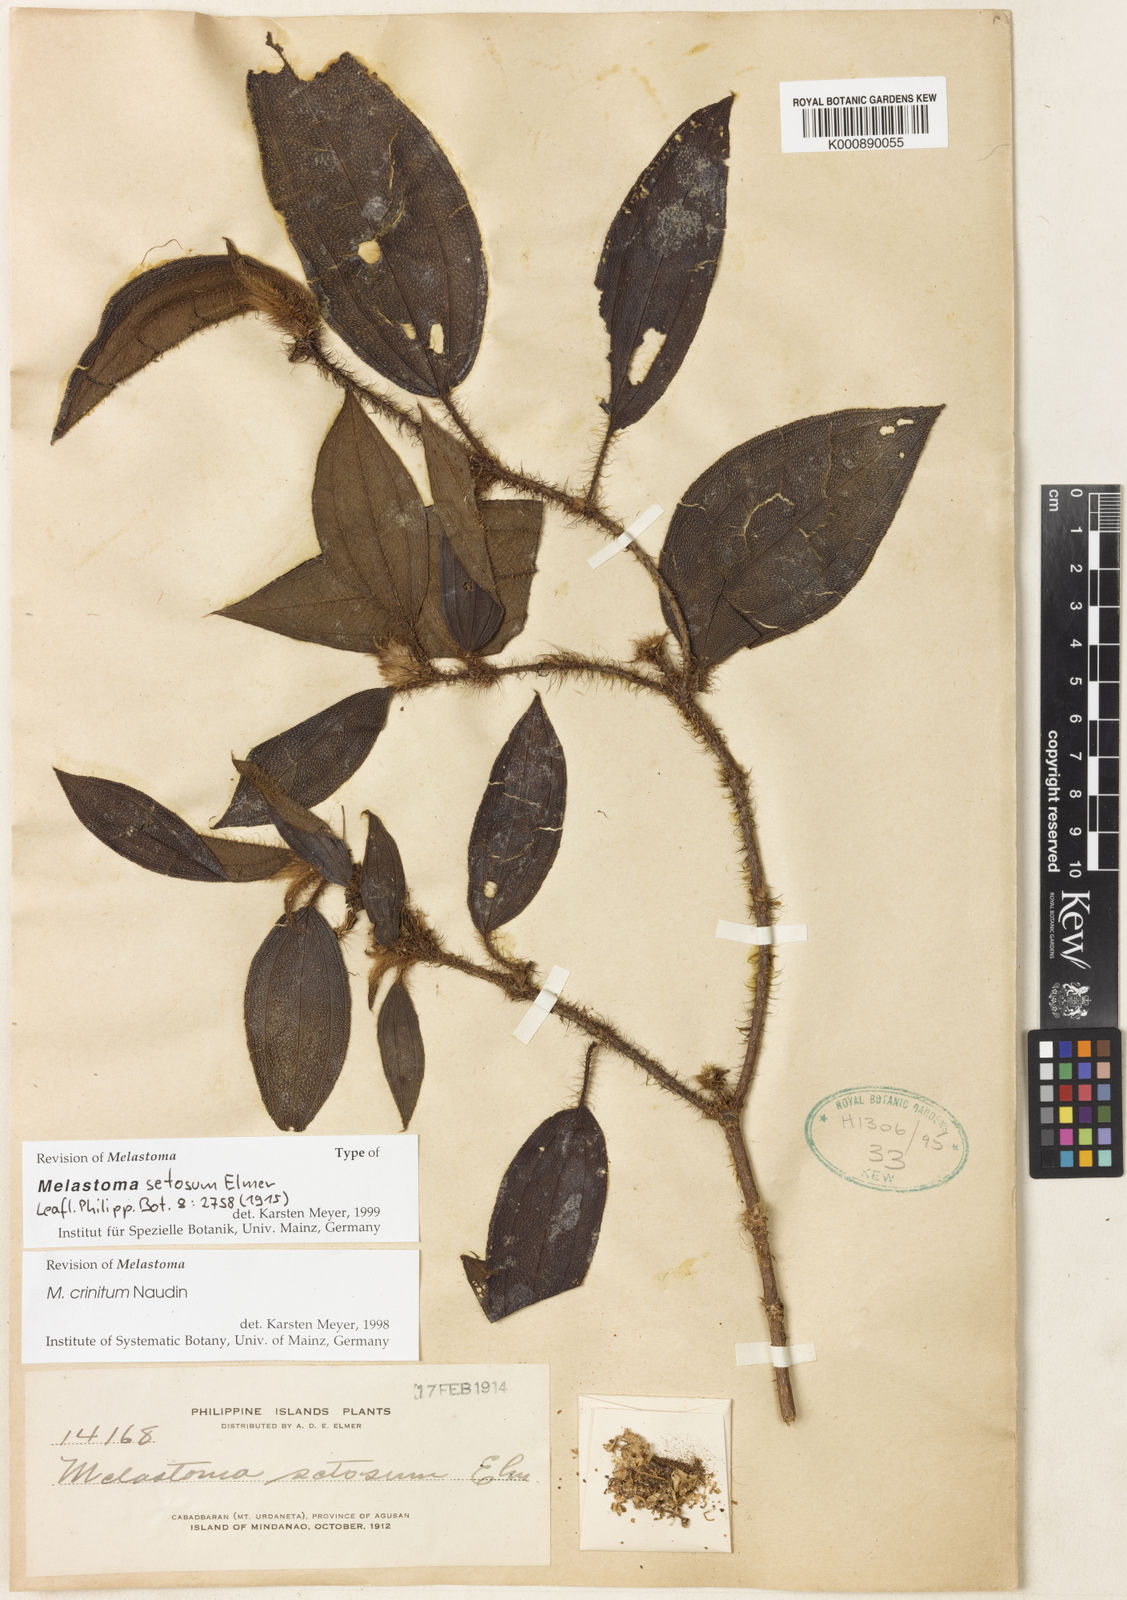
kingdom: Plantae
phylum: Tracheophyta
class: Magnoliopsida
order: Myrtales
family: Melastomataceae
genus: Melastoma
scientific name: Melastoma penicillatum
